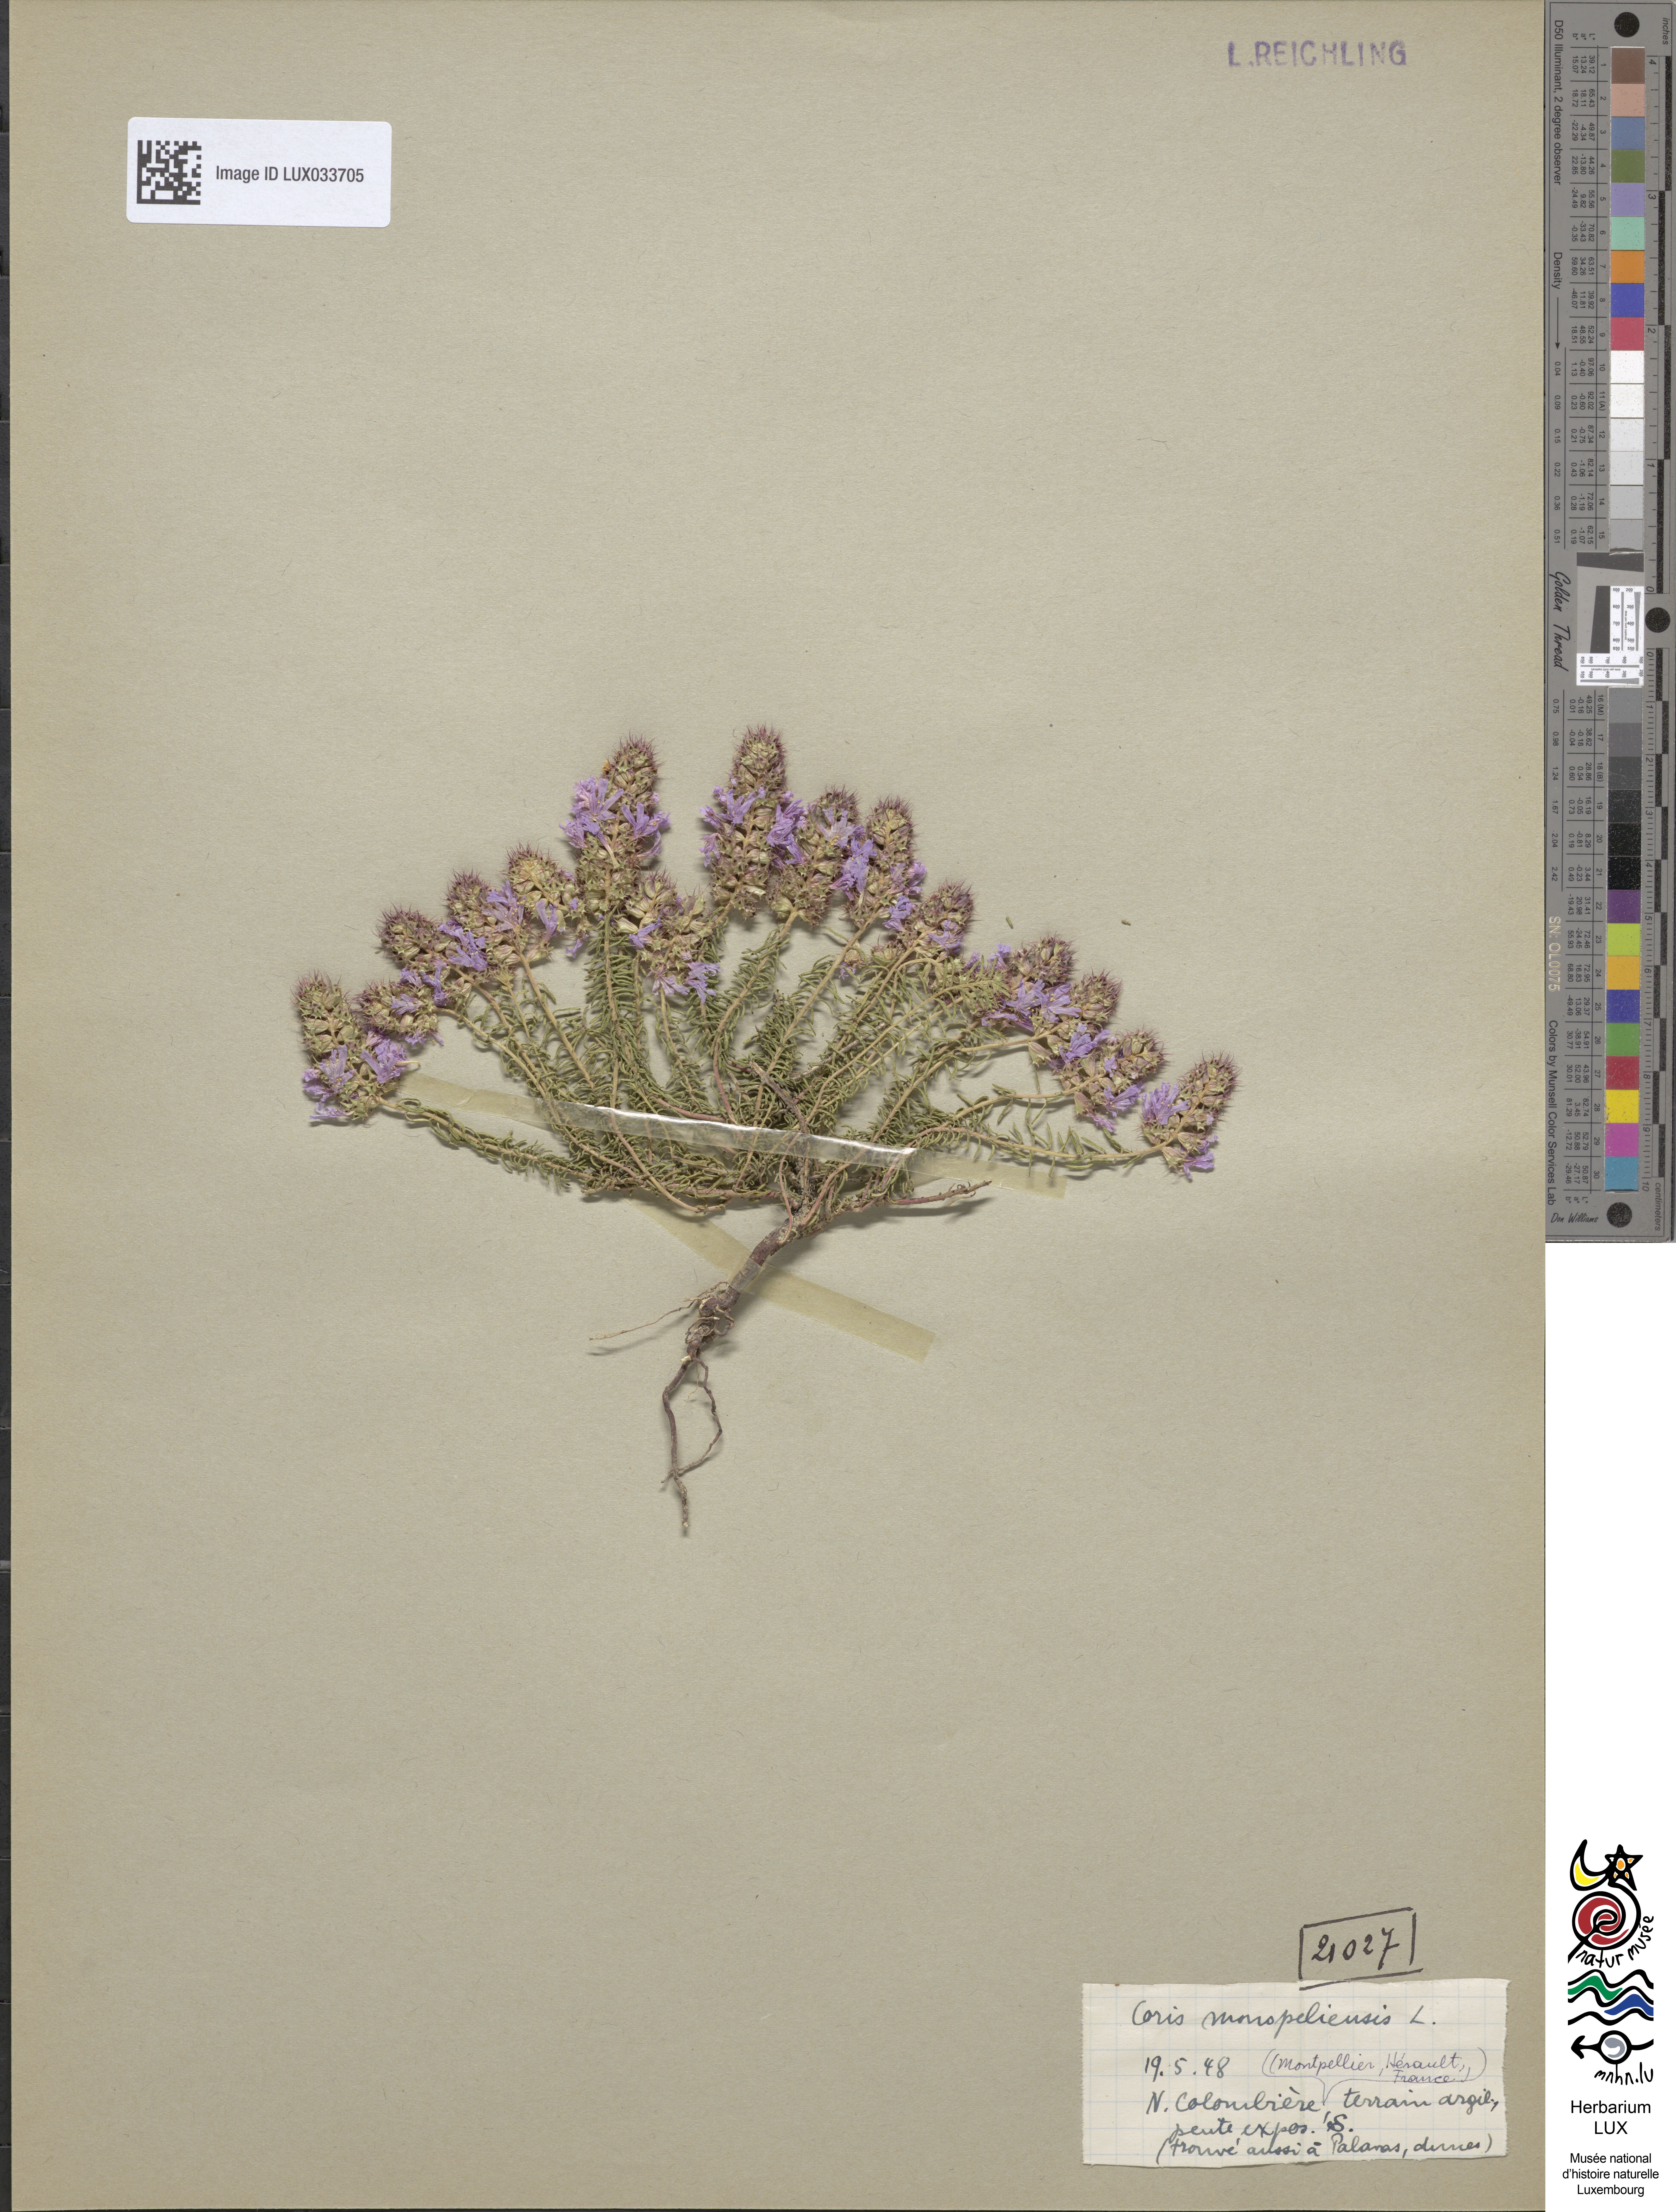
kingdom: Plantae
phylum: Tracheophyta
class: Magnoliopsida
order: Ericales
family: Primulaceae
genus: Coris
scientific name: Coris monspeliensis
